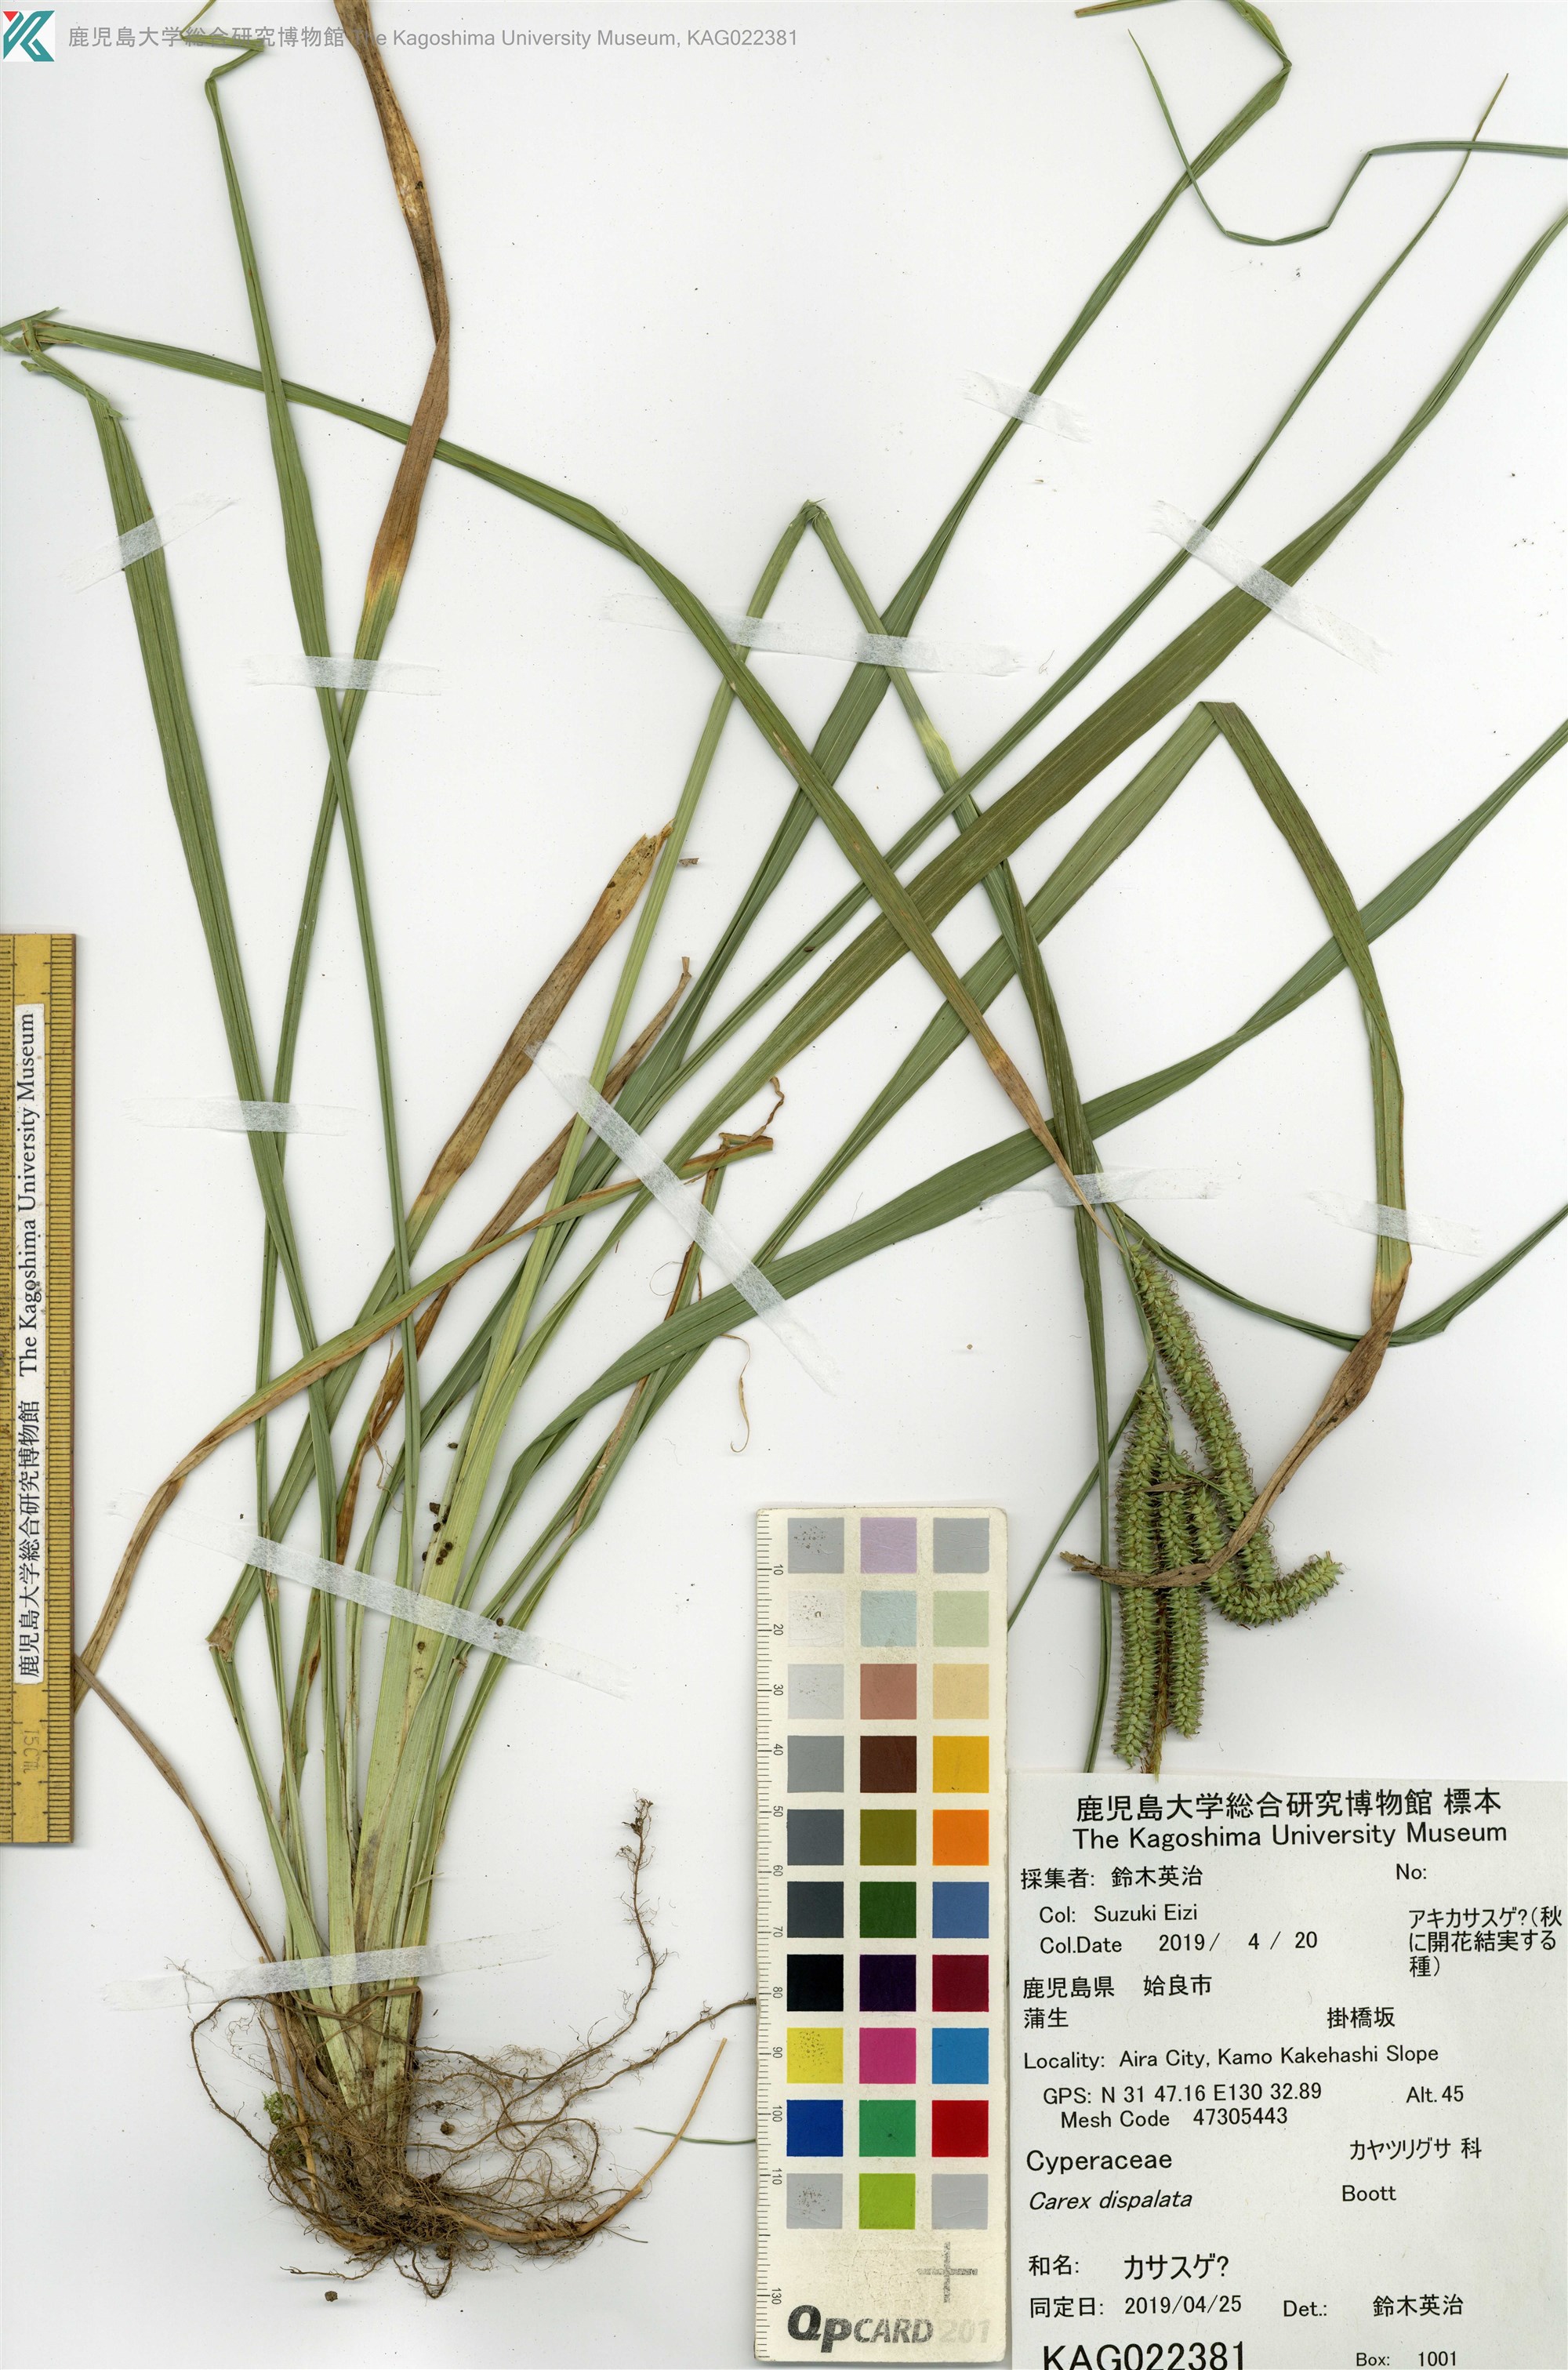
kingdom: Plantae
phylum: Tracheophyta
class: Liliopsida
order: Poales
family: Cyperaceae
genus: Carex
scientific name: Carex alopecuroides
